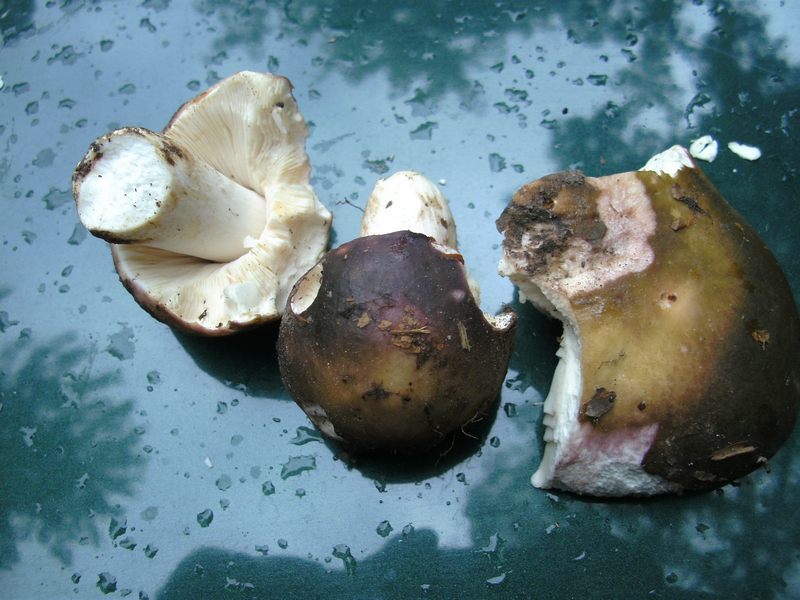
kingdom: Fungi
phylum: Basidiomycota
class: Agaricomycetes
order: Russulales
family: Russulaceae
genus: Russula
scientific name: Russula ionochlora
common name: violetgrøn skørhat
